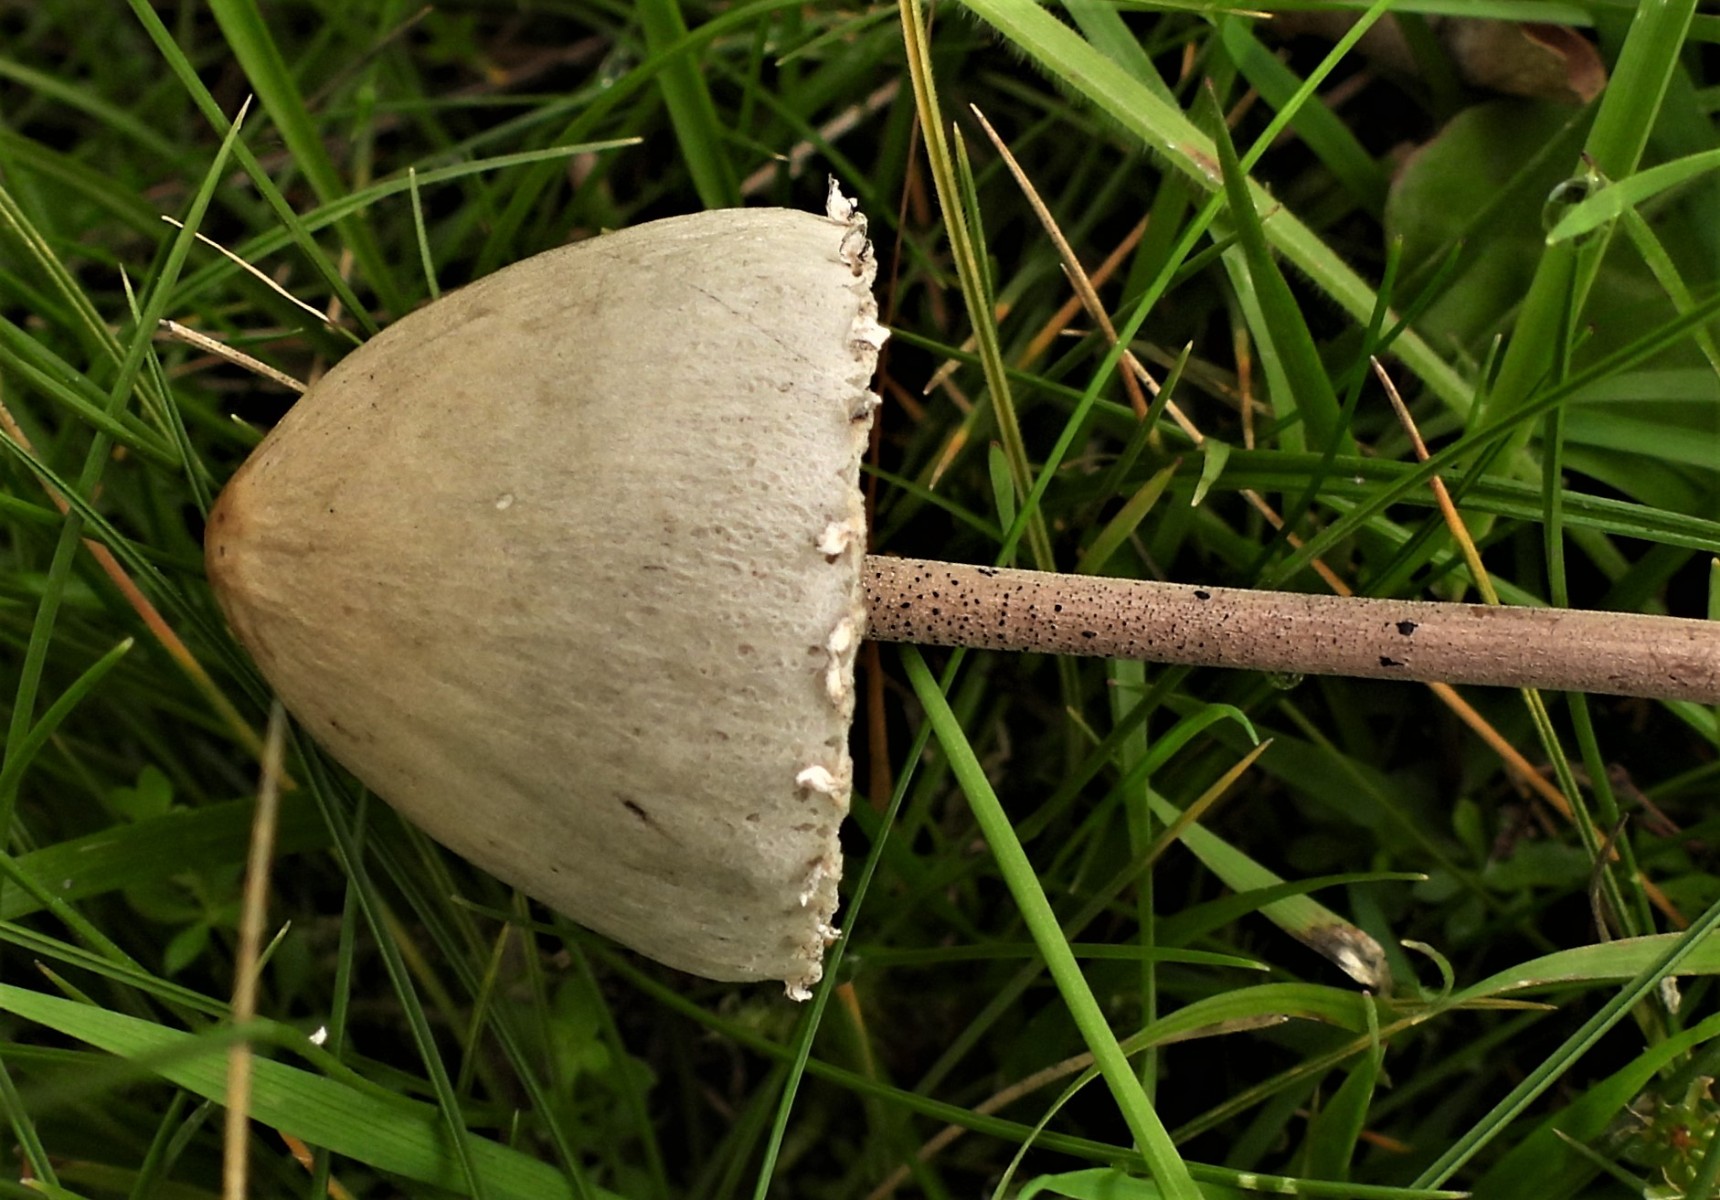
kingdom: Fungi
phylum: Basidiomycota
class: Agaricomycetes
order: Agaricales
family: Bolbitiaceae
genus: Panaeolus
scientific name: Panaeolus papilionaceus
